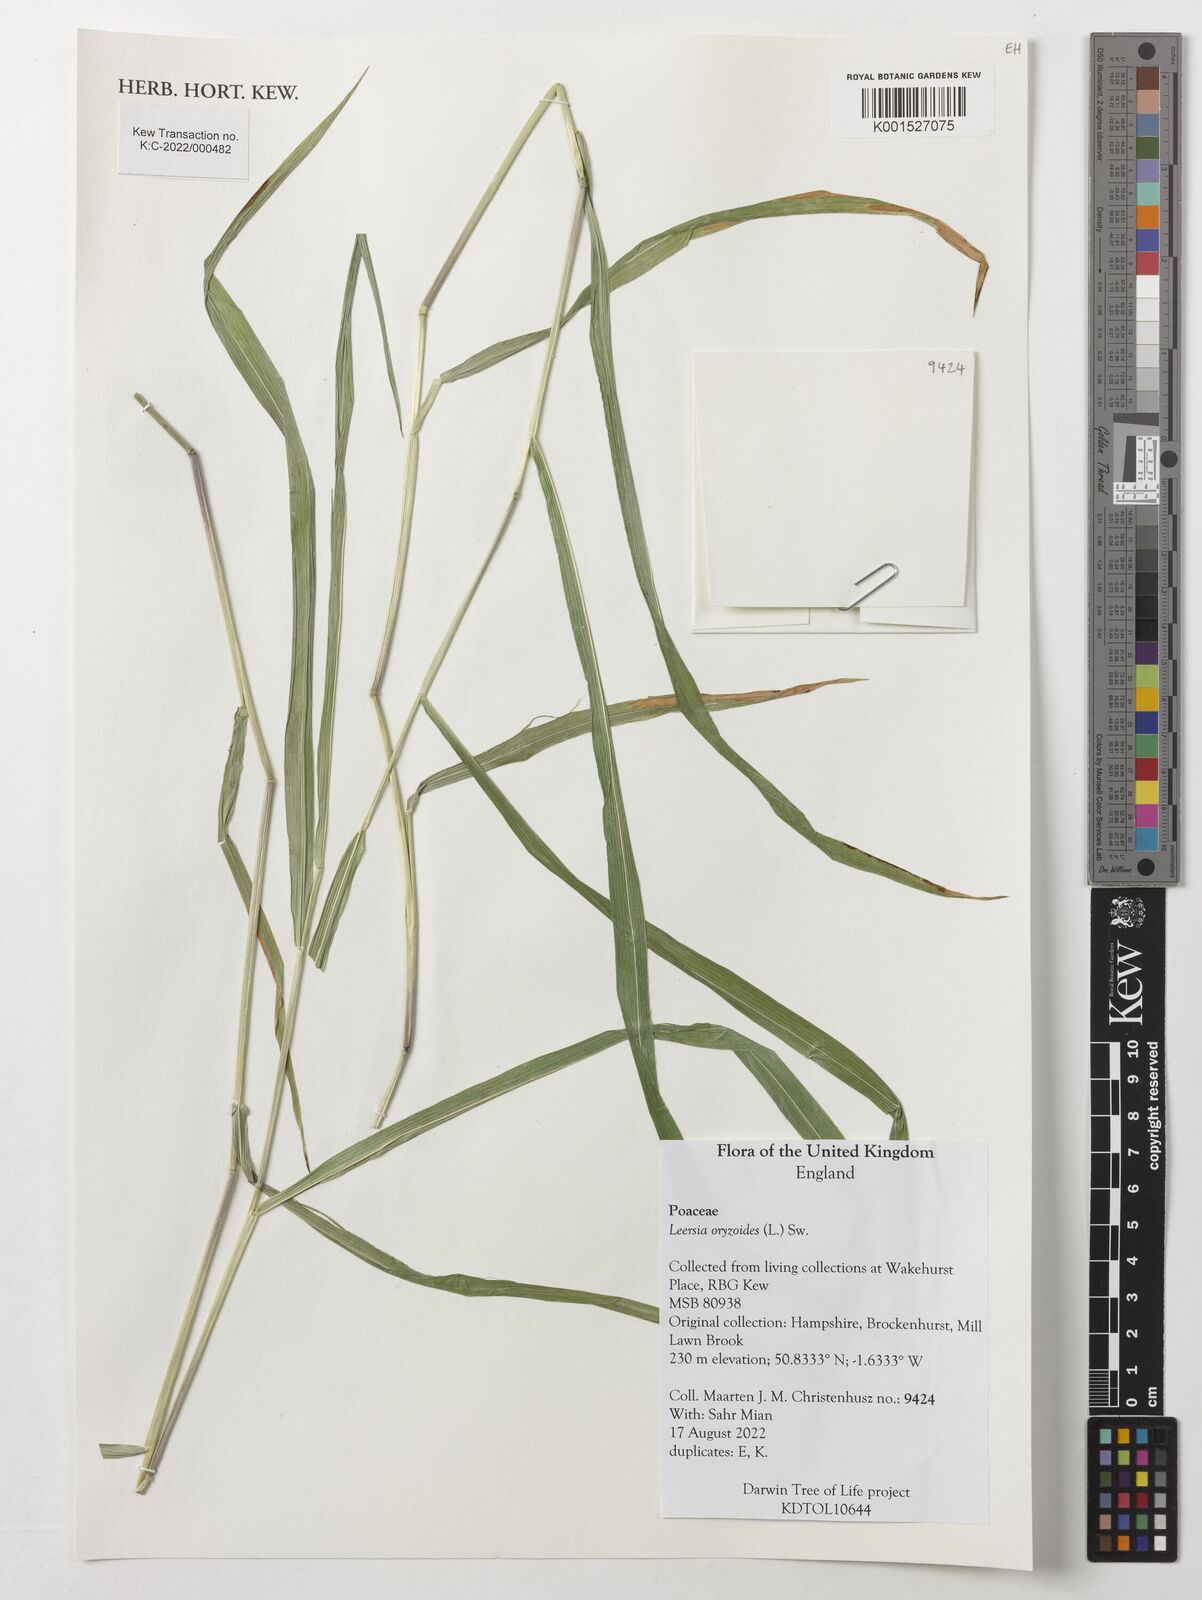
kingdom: Plantae
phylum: Tracheophyta
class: Liliopsida
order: Poales
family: Poaceae
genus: Leersia
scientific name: Leersia oryzoides
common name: Cut-grass
